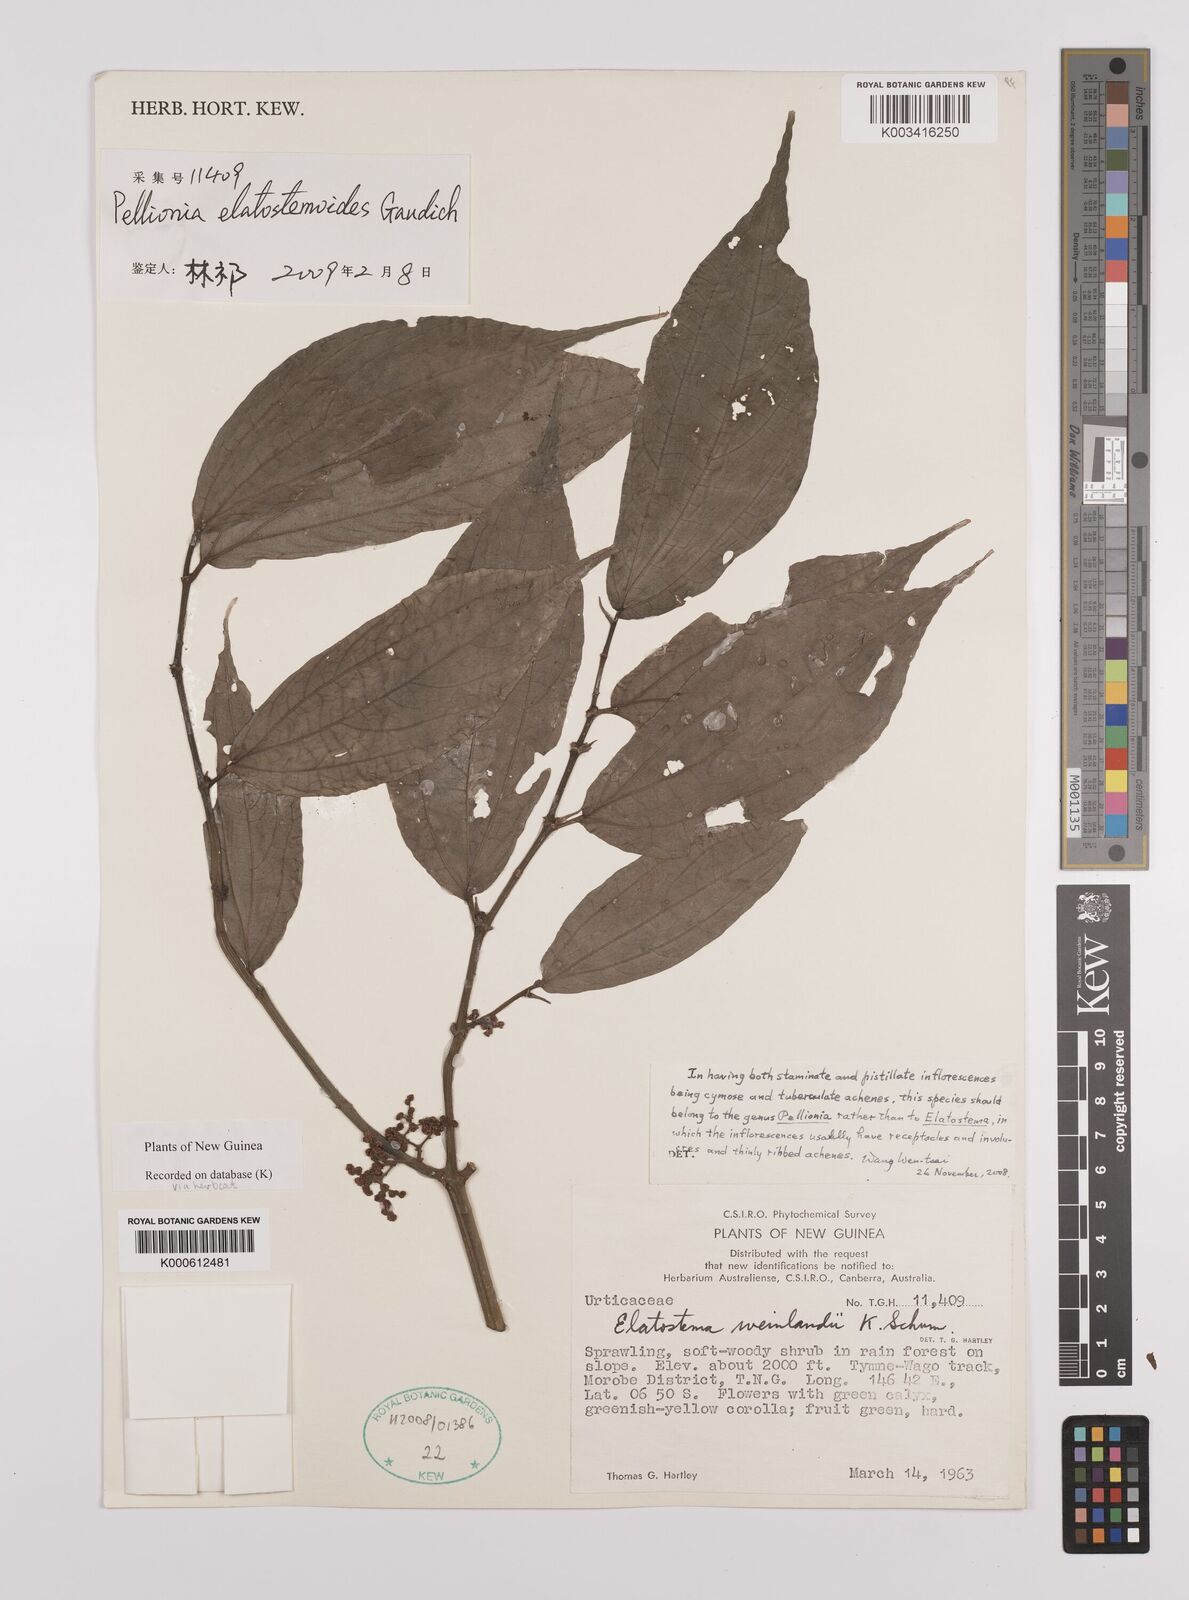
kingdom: Plantae
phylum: Tracheophyta
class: Magnoliopsida
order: Rosales
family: Urticaceae
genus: Elatostema
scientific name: Elatostema weinlandii
